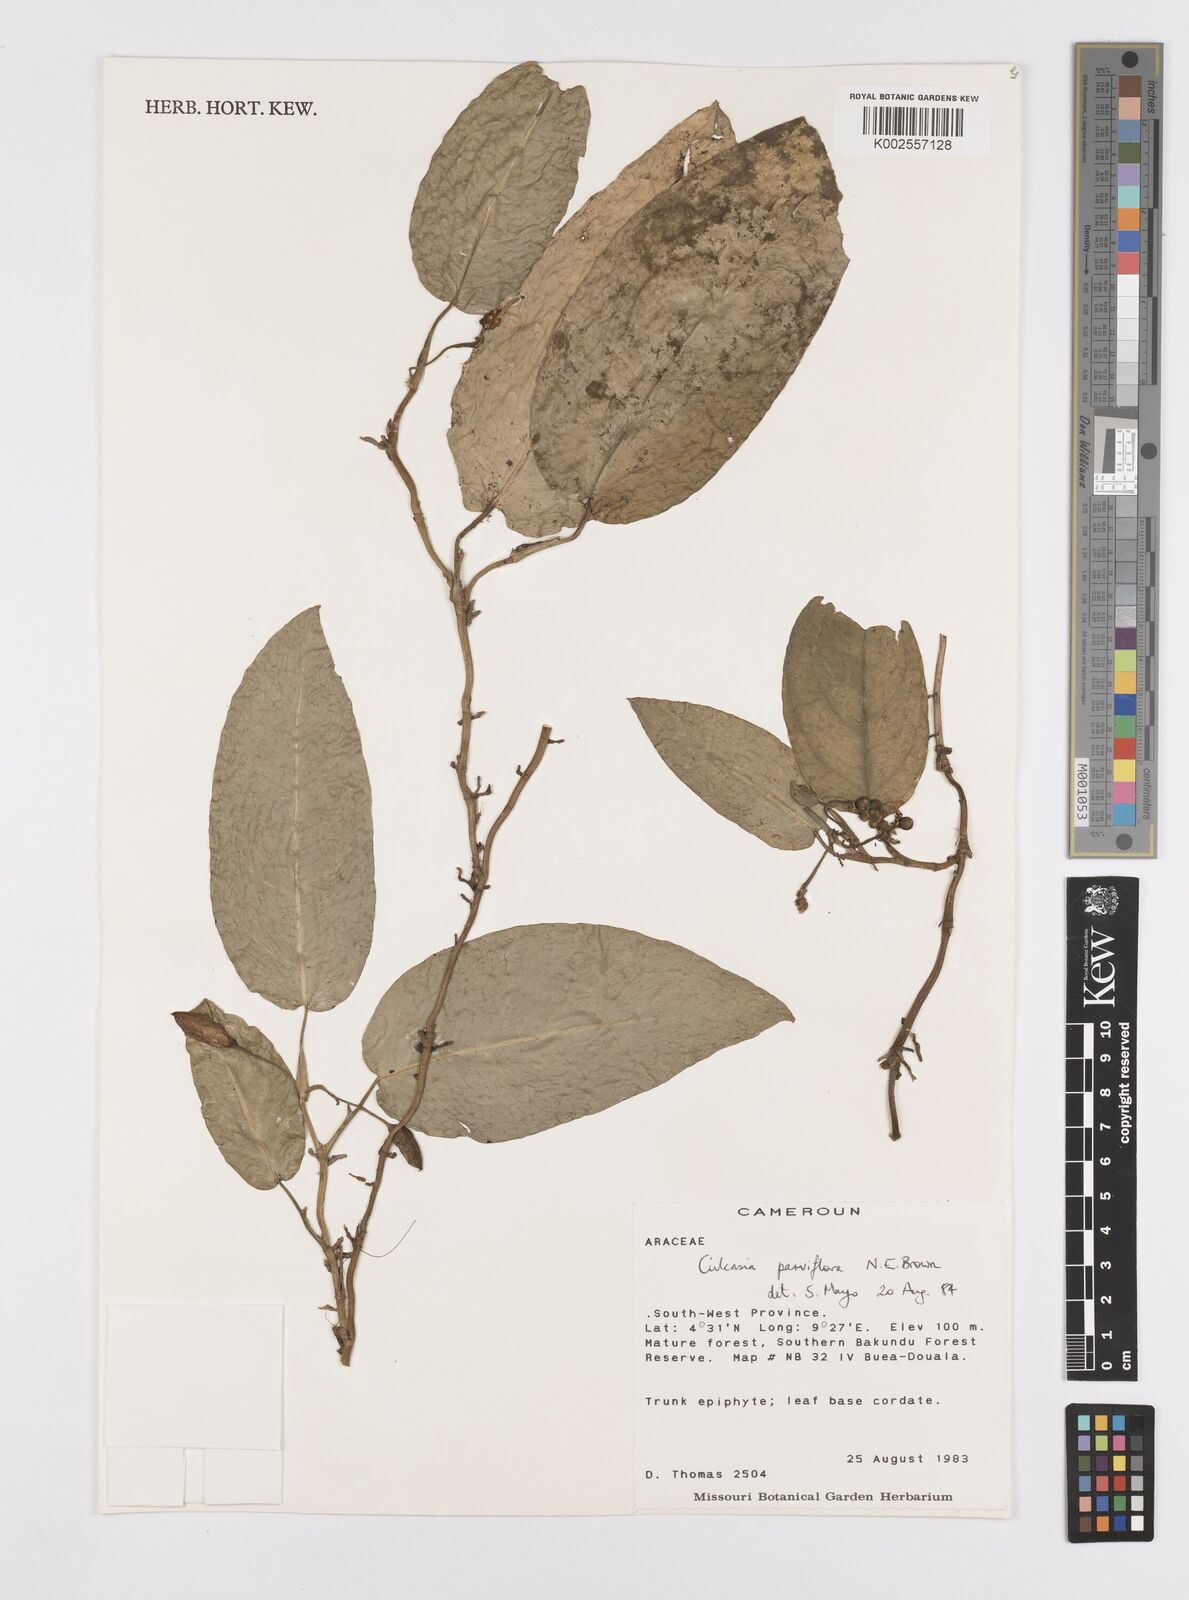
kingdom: Plantae
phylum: Tracheophyta
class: Liliopsida
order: Alismatales
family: Araceae
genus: Culcasia
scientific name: Culcasia parviflora
